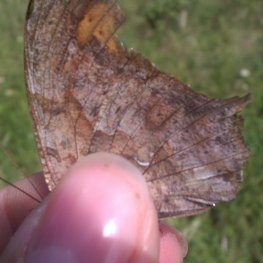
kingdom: Animalia
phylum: Arthropoda
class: Insecta
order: Lepidoptera
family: Nymphalidae
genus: Polygonia
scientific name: Polygonia interrogationis
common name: Question Mark
